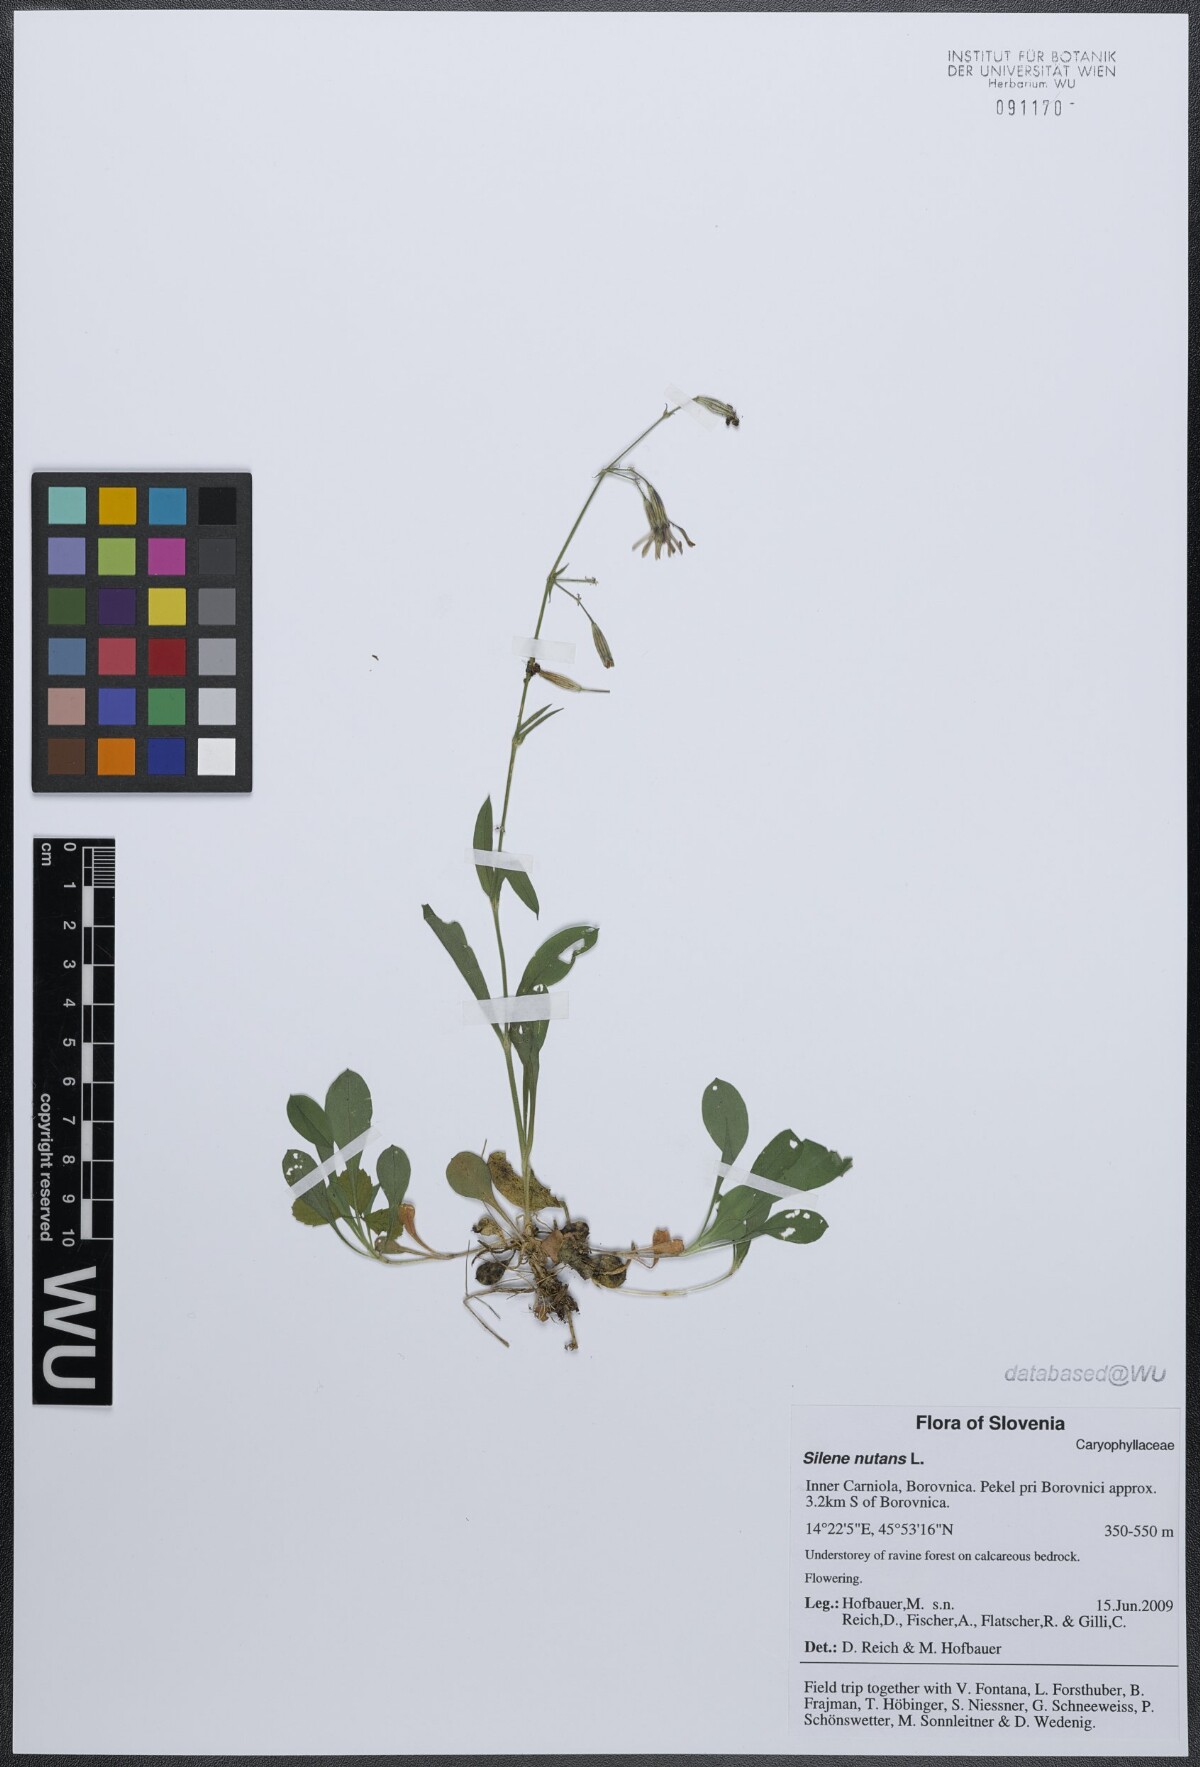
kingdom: Plantae
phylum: Tracheophyta
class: Magnoliopsida
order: Caryophyllales
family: Caryophyllaceae
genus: Silene
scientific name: Silene nutans
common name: Nottingham catchfly
